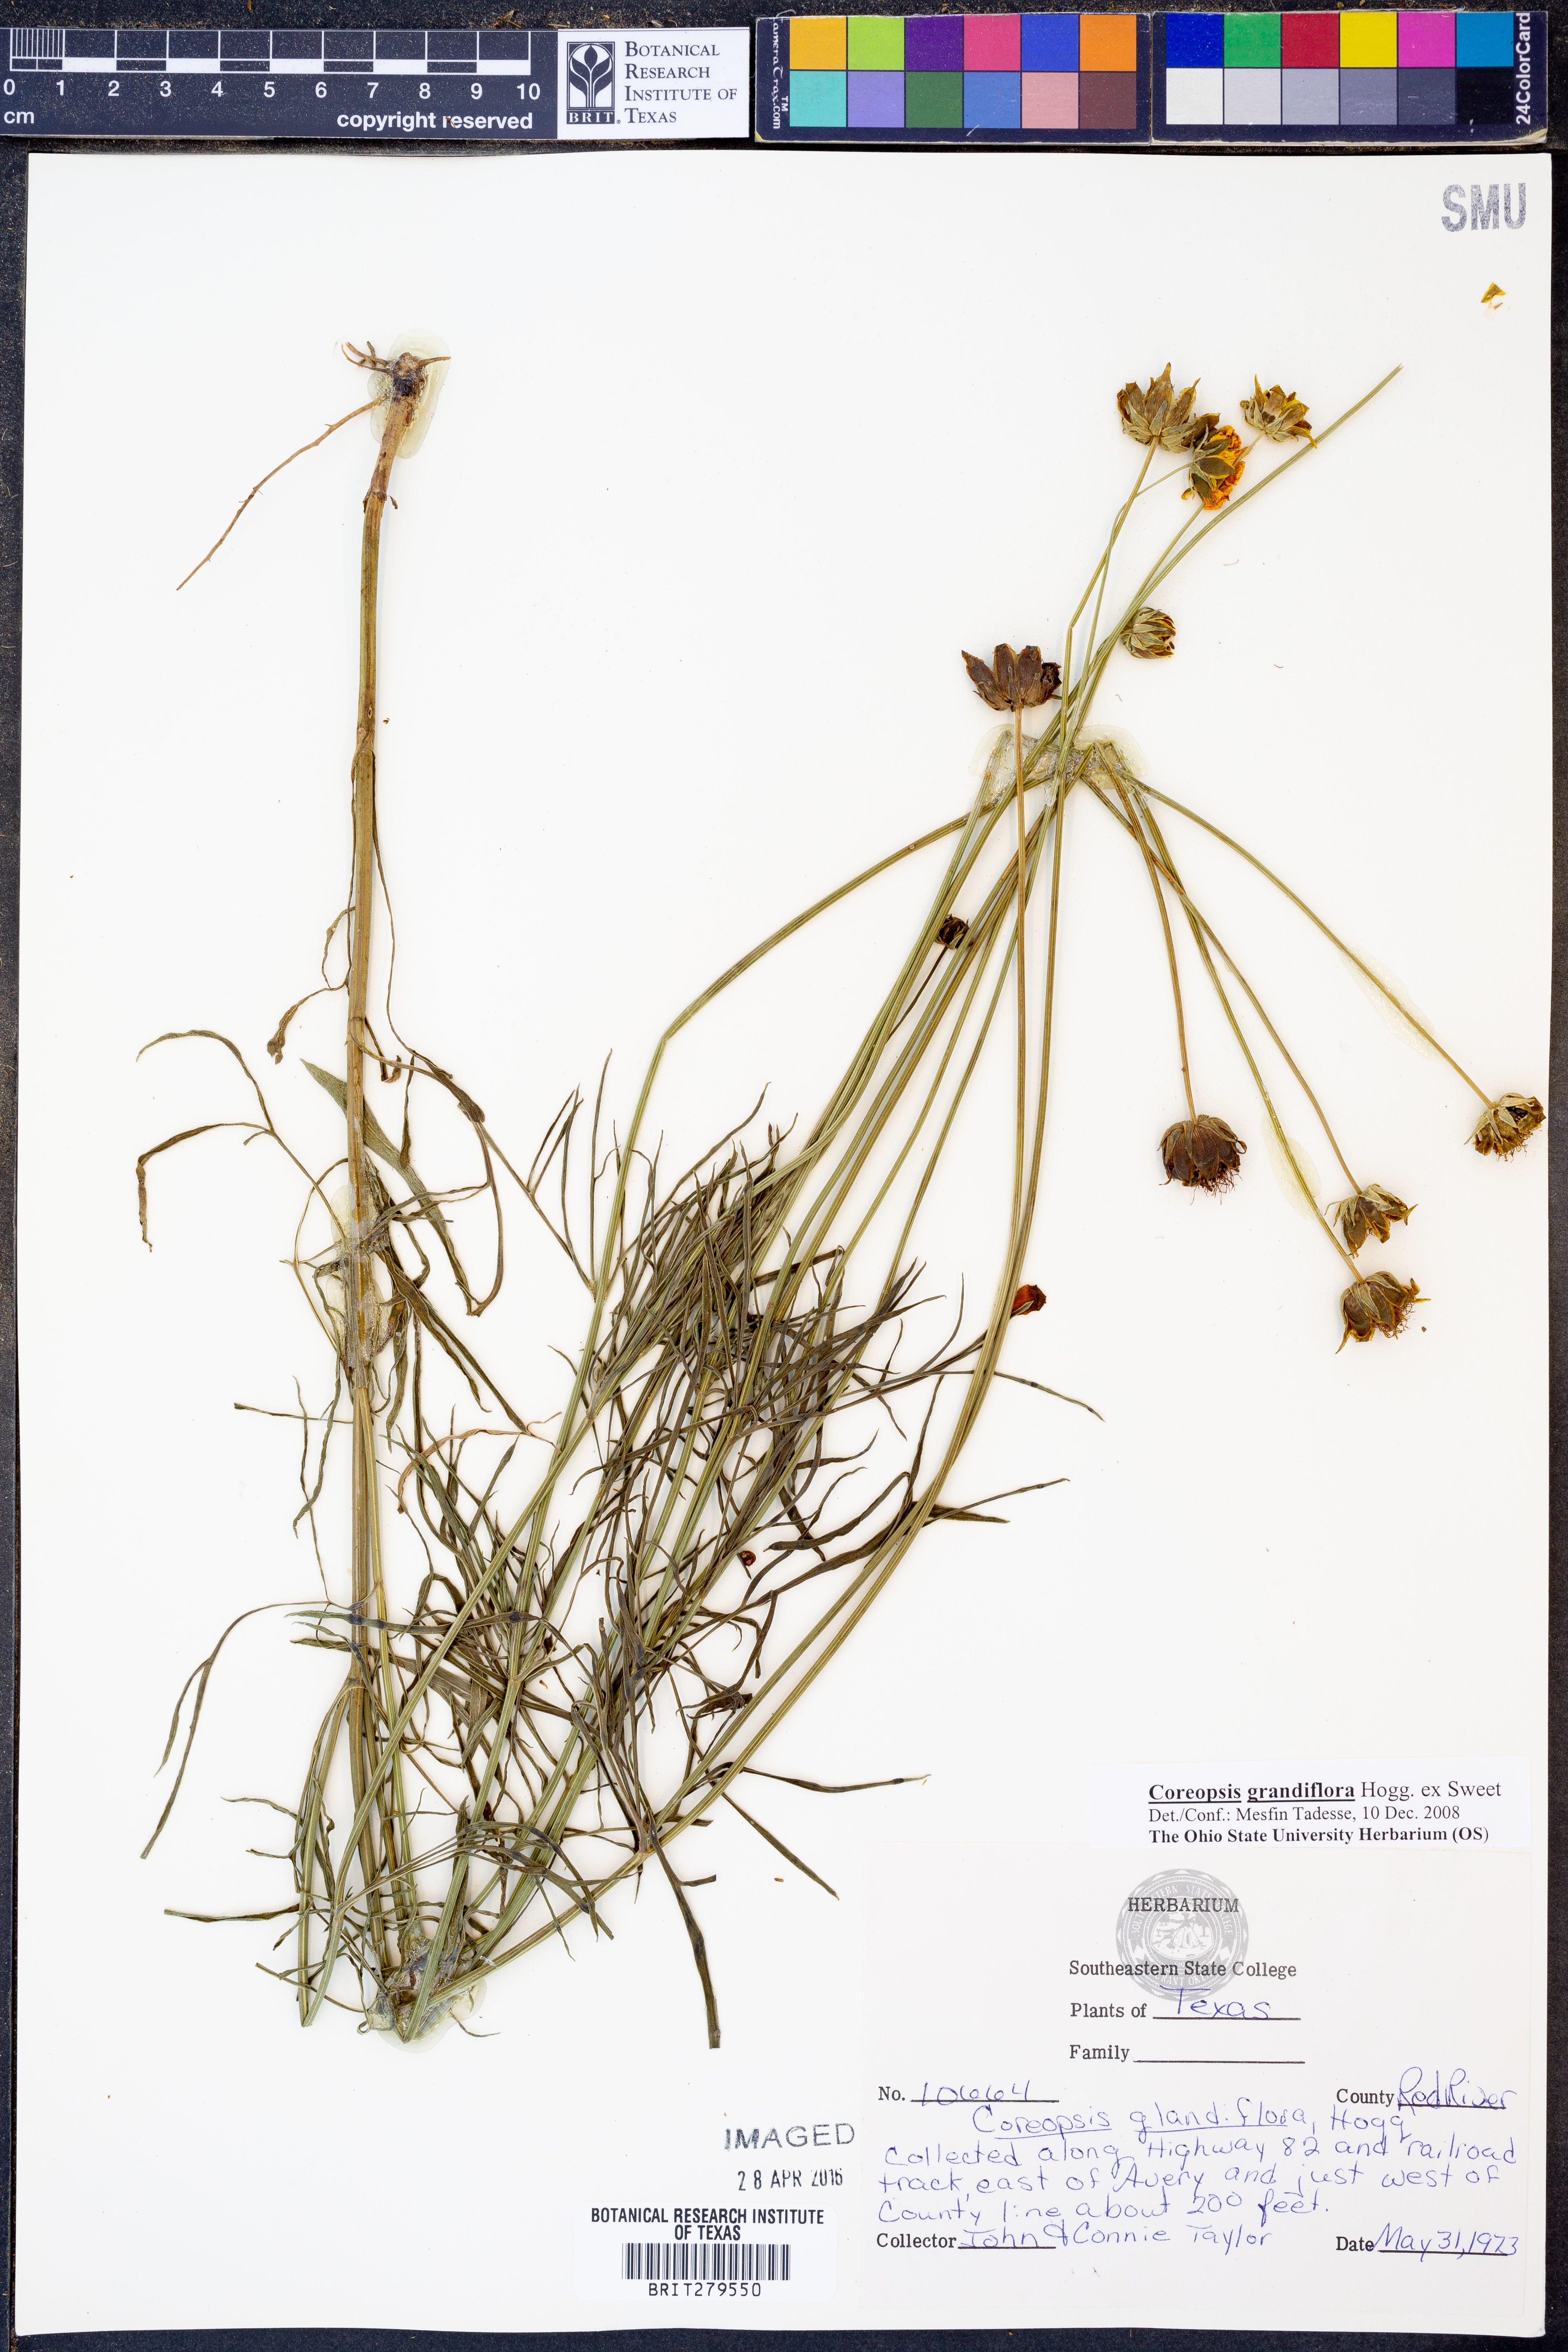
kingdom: Plantae
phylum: Tracheophyta
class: Magnoliopsida
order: Asterales
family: Asteraceae
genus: Coreopsis
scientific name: Coreopsis grandiflora
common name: Large-flowered tickseed
